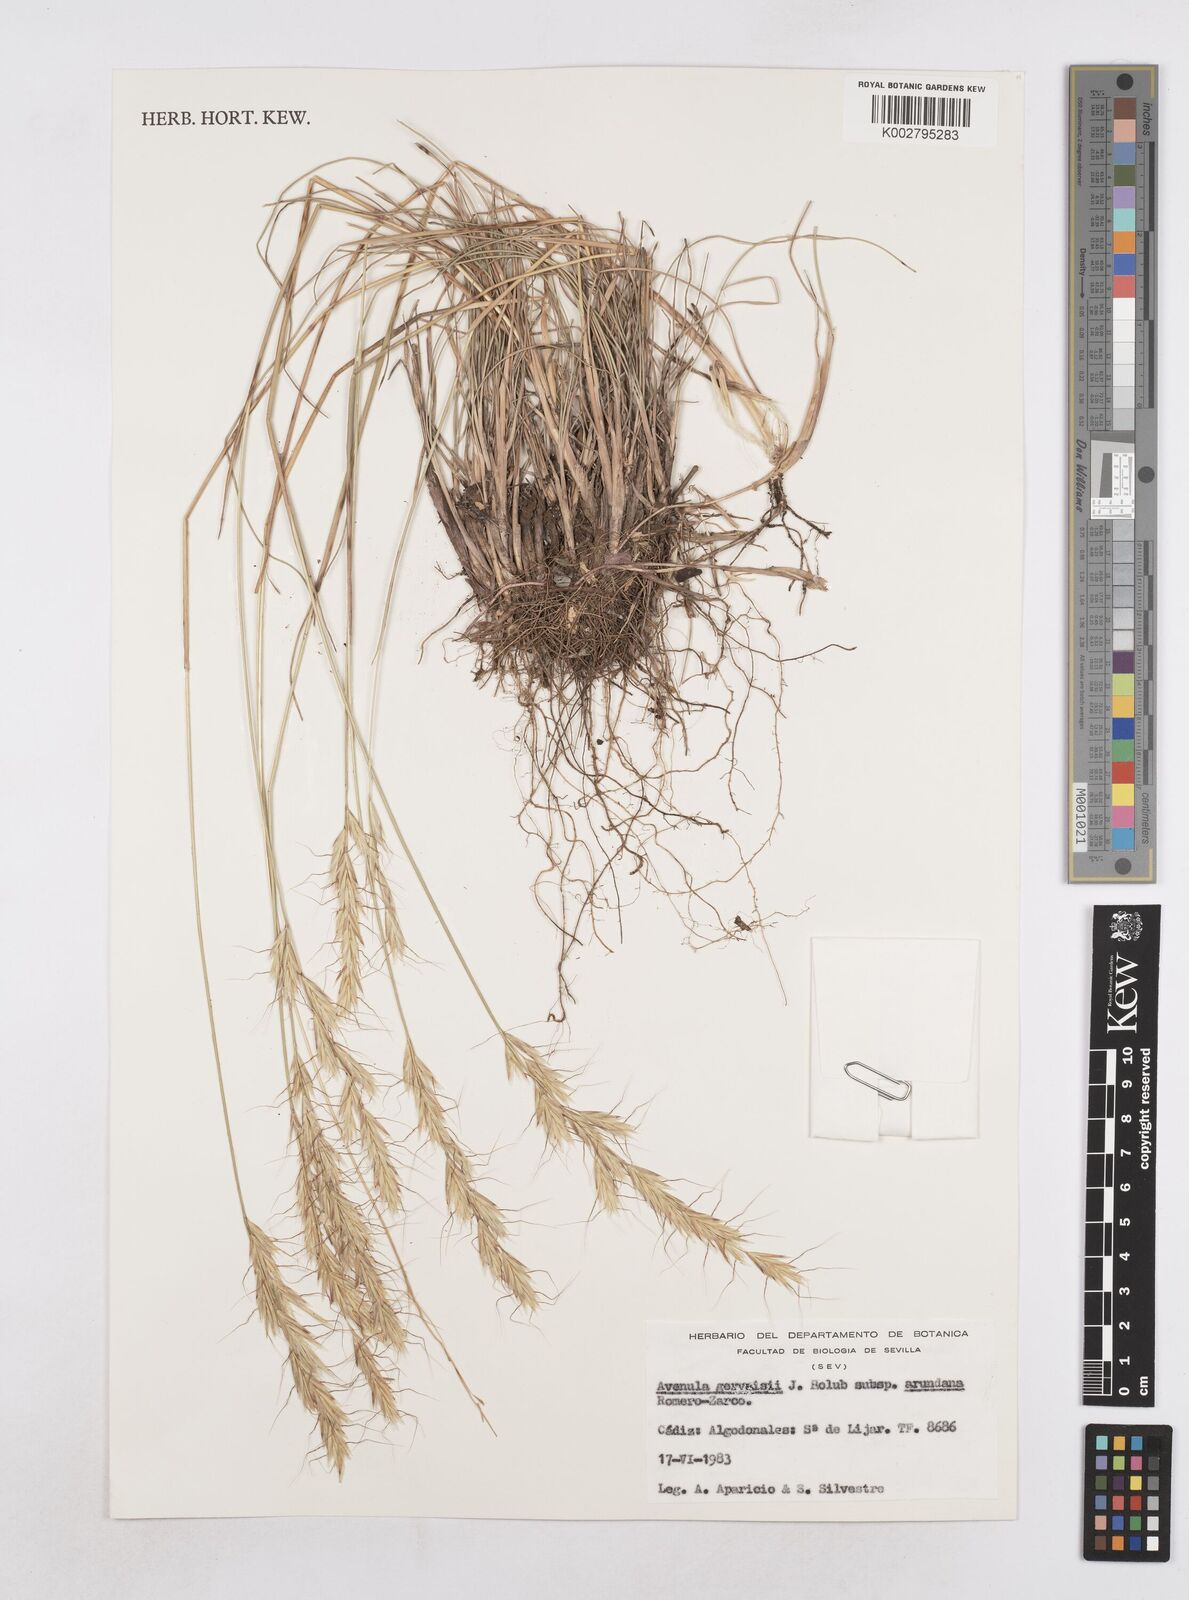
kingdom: Plantae
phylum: Tracheophyta
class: Liliopsida
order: Poales
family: Poaceae
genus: Helictochloa
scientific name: Helictochloa gervaisii
